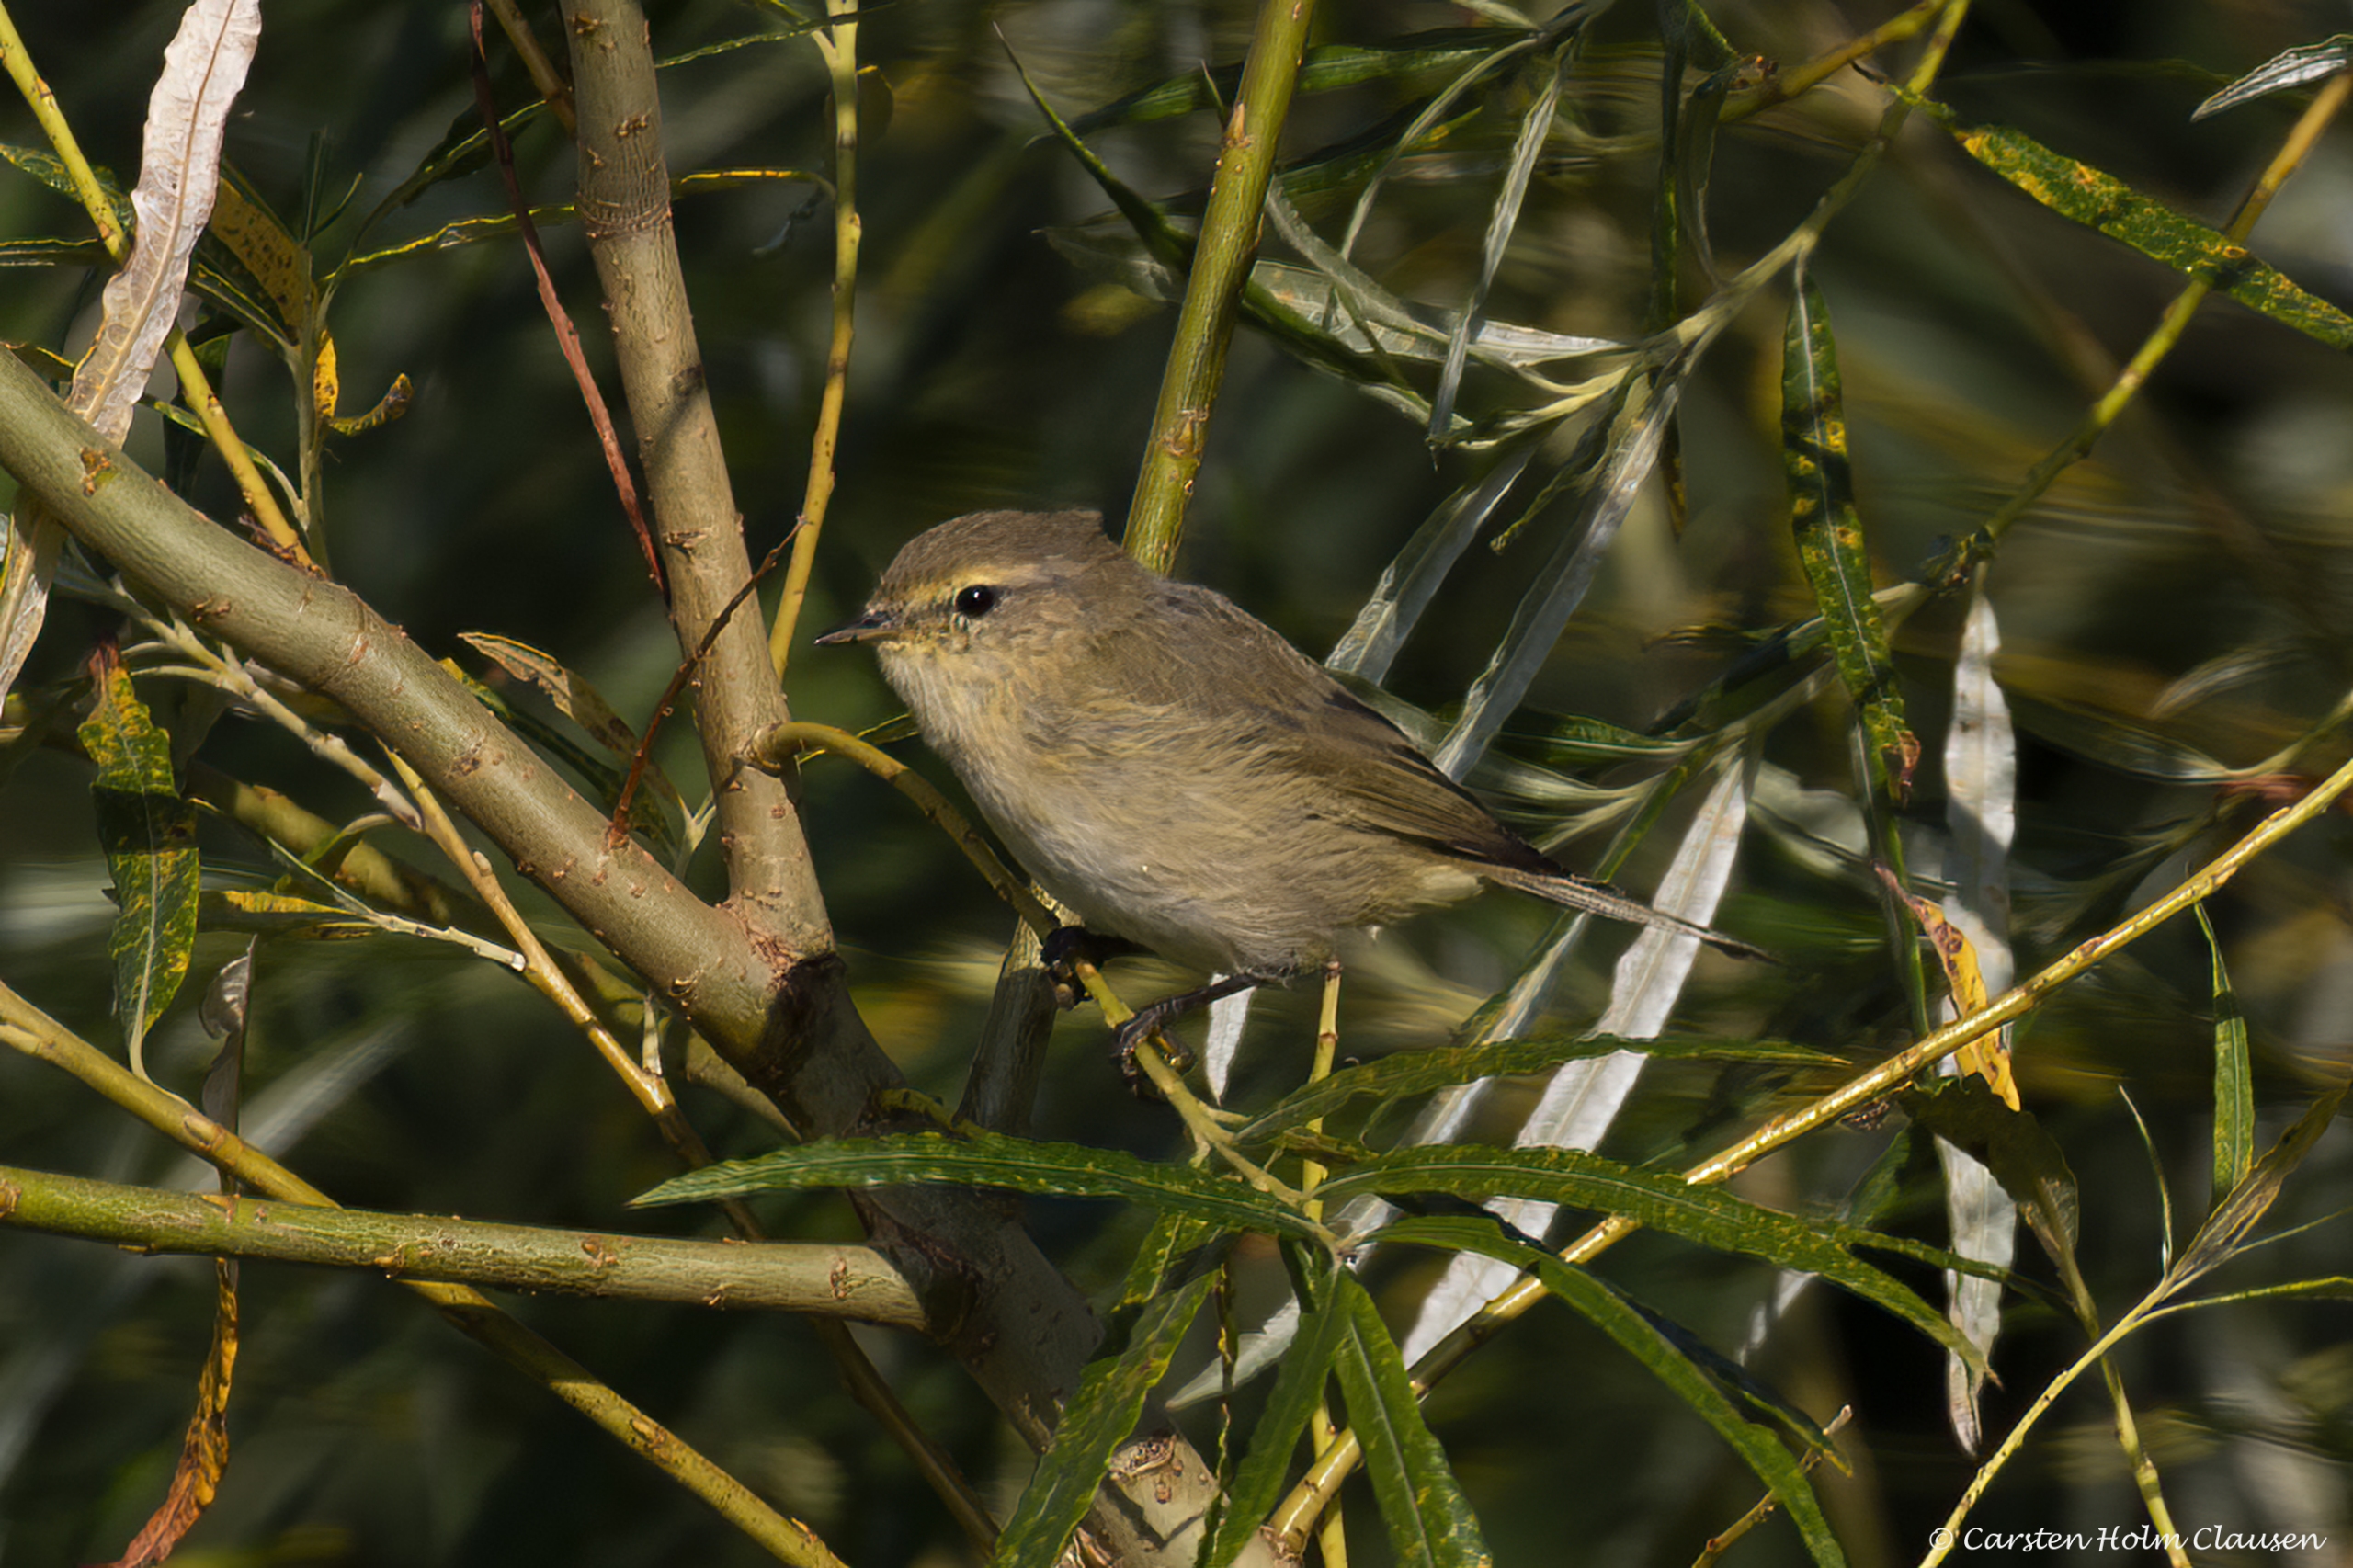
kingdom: Animalia
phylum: Chordata
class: Aves
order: Passeriformes
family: Phylloscopidae
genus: Phylloscopus
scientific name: Phylloscopus collybita
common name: Gransanger
